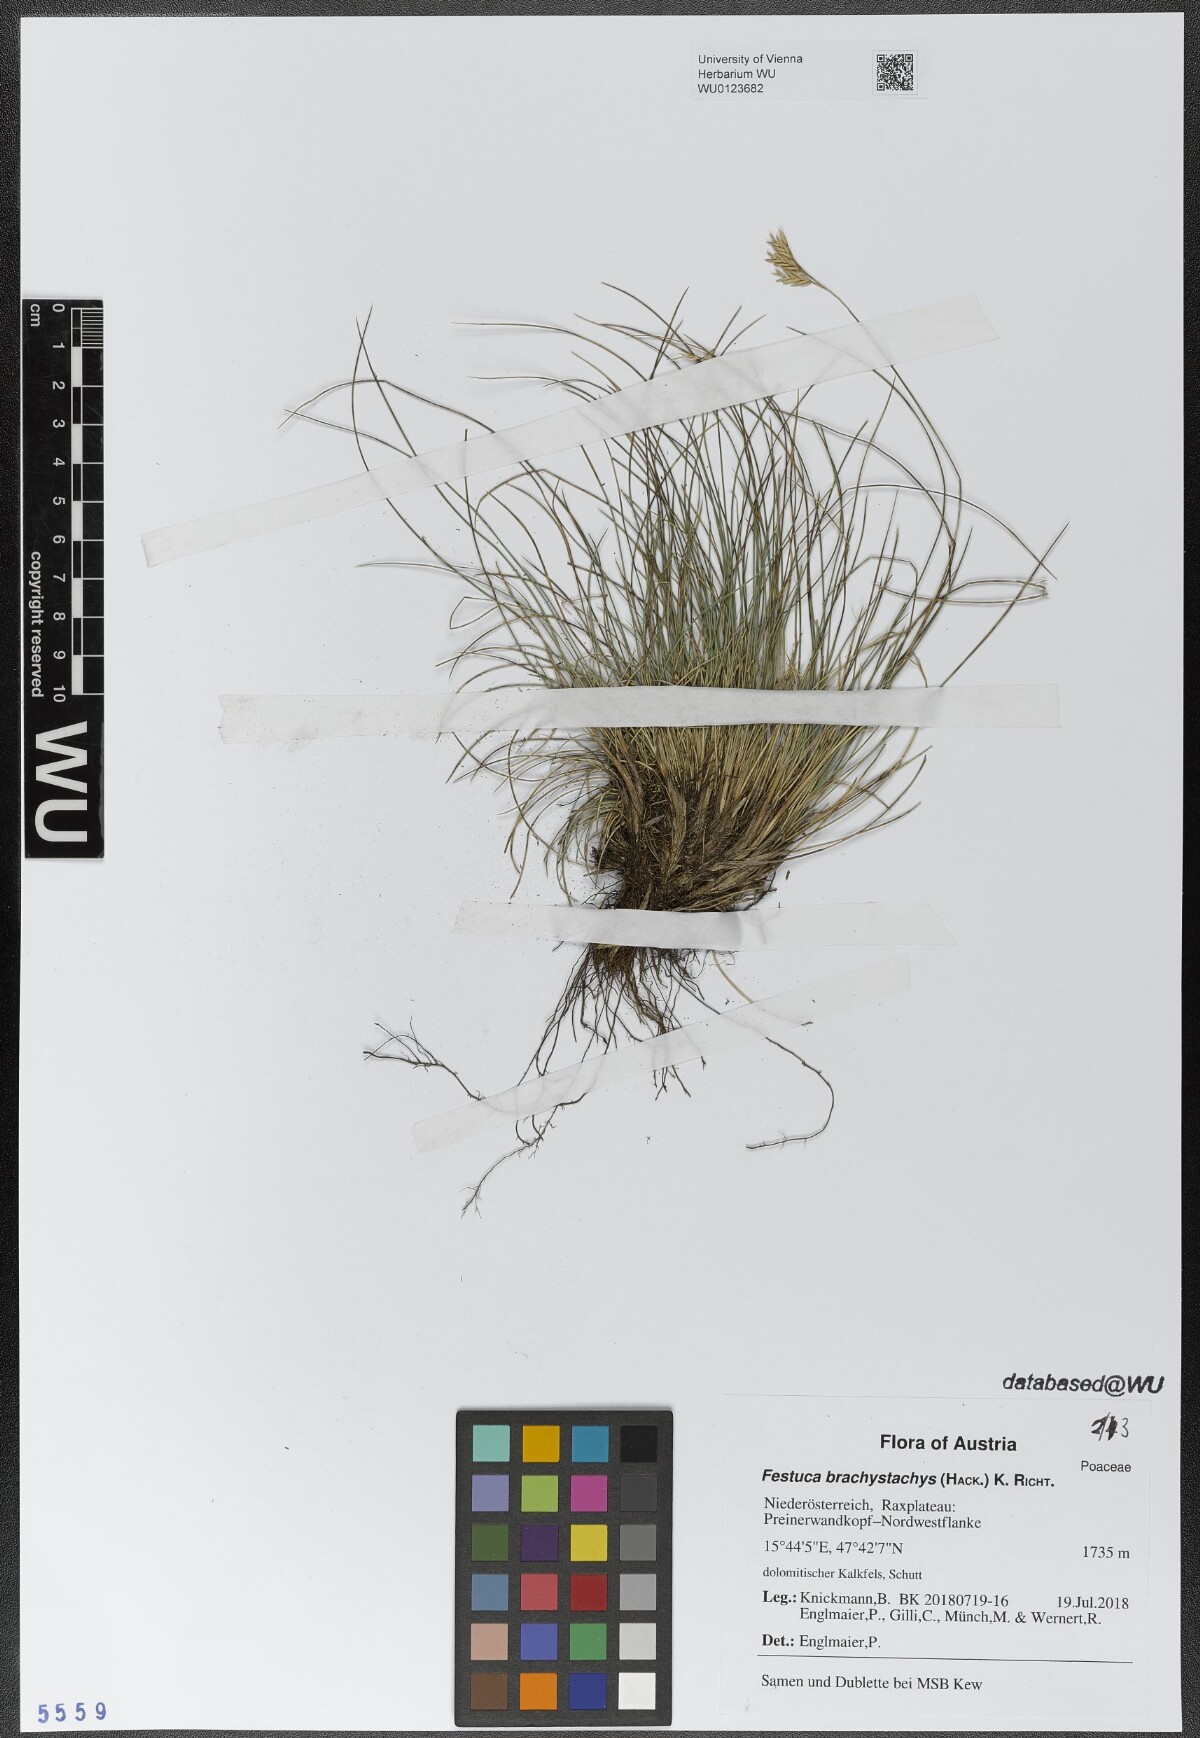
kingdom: Plantae
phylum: Tracheophyta
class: Liliopsida
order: Poales
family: Poaceae
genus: Festuca
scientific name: Festuca varia
